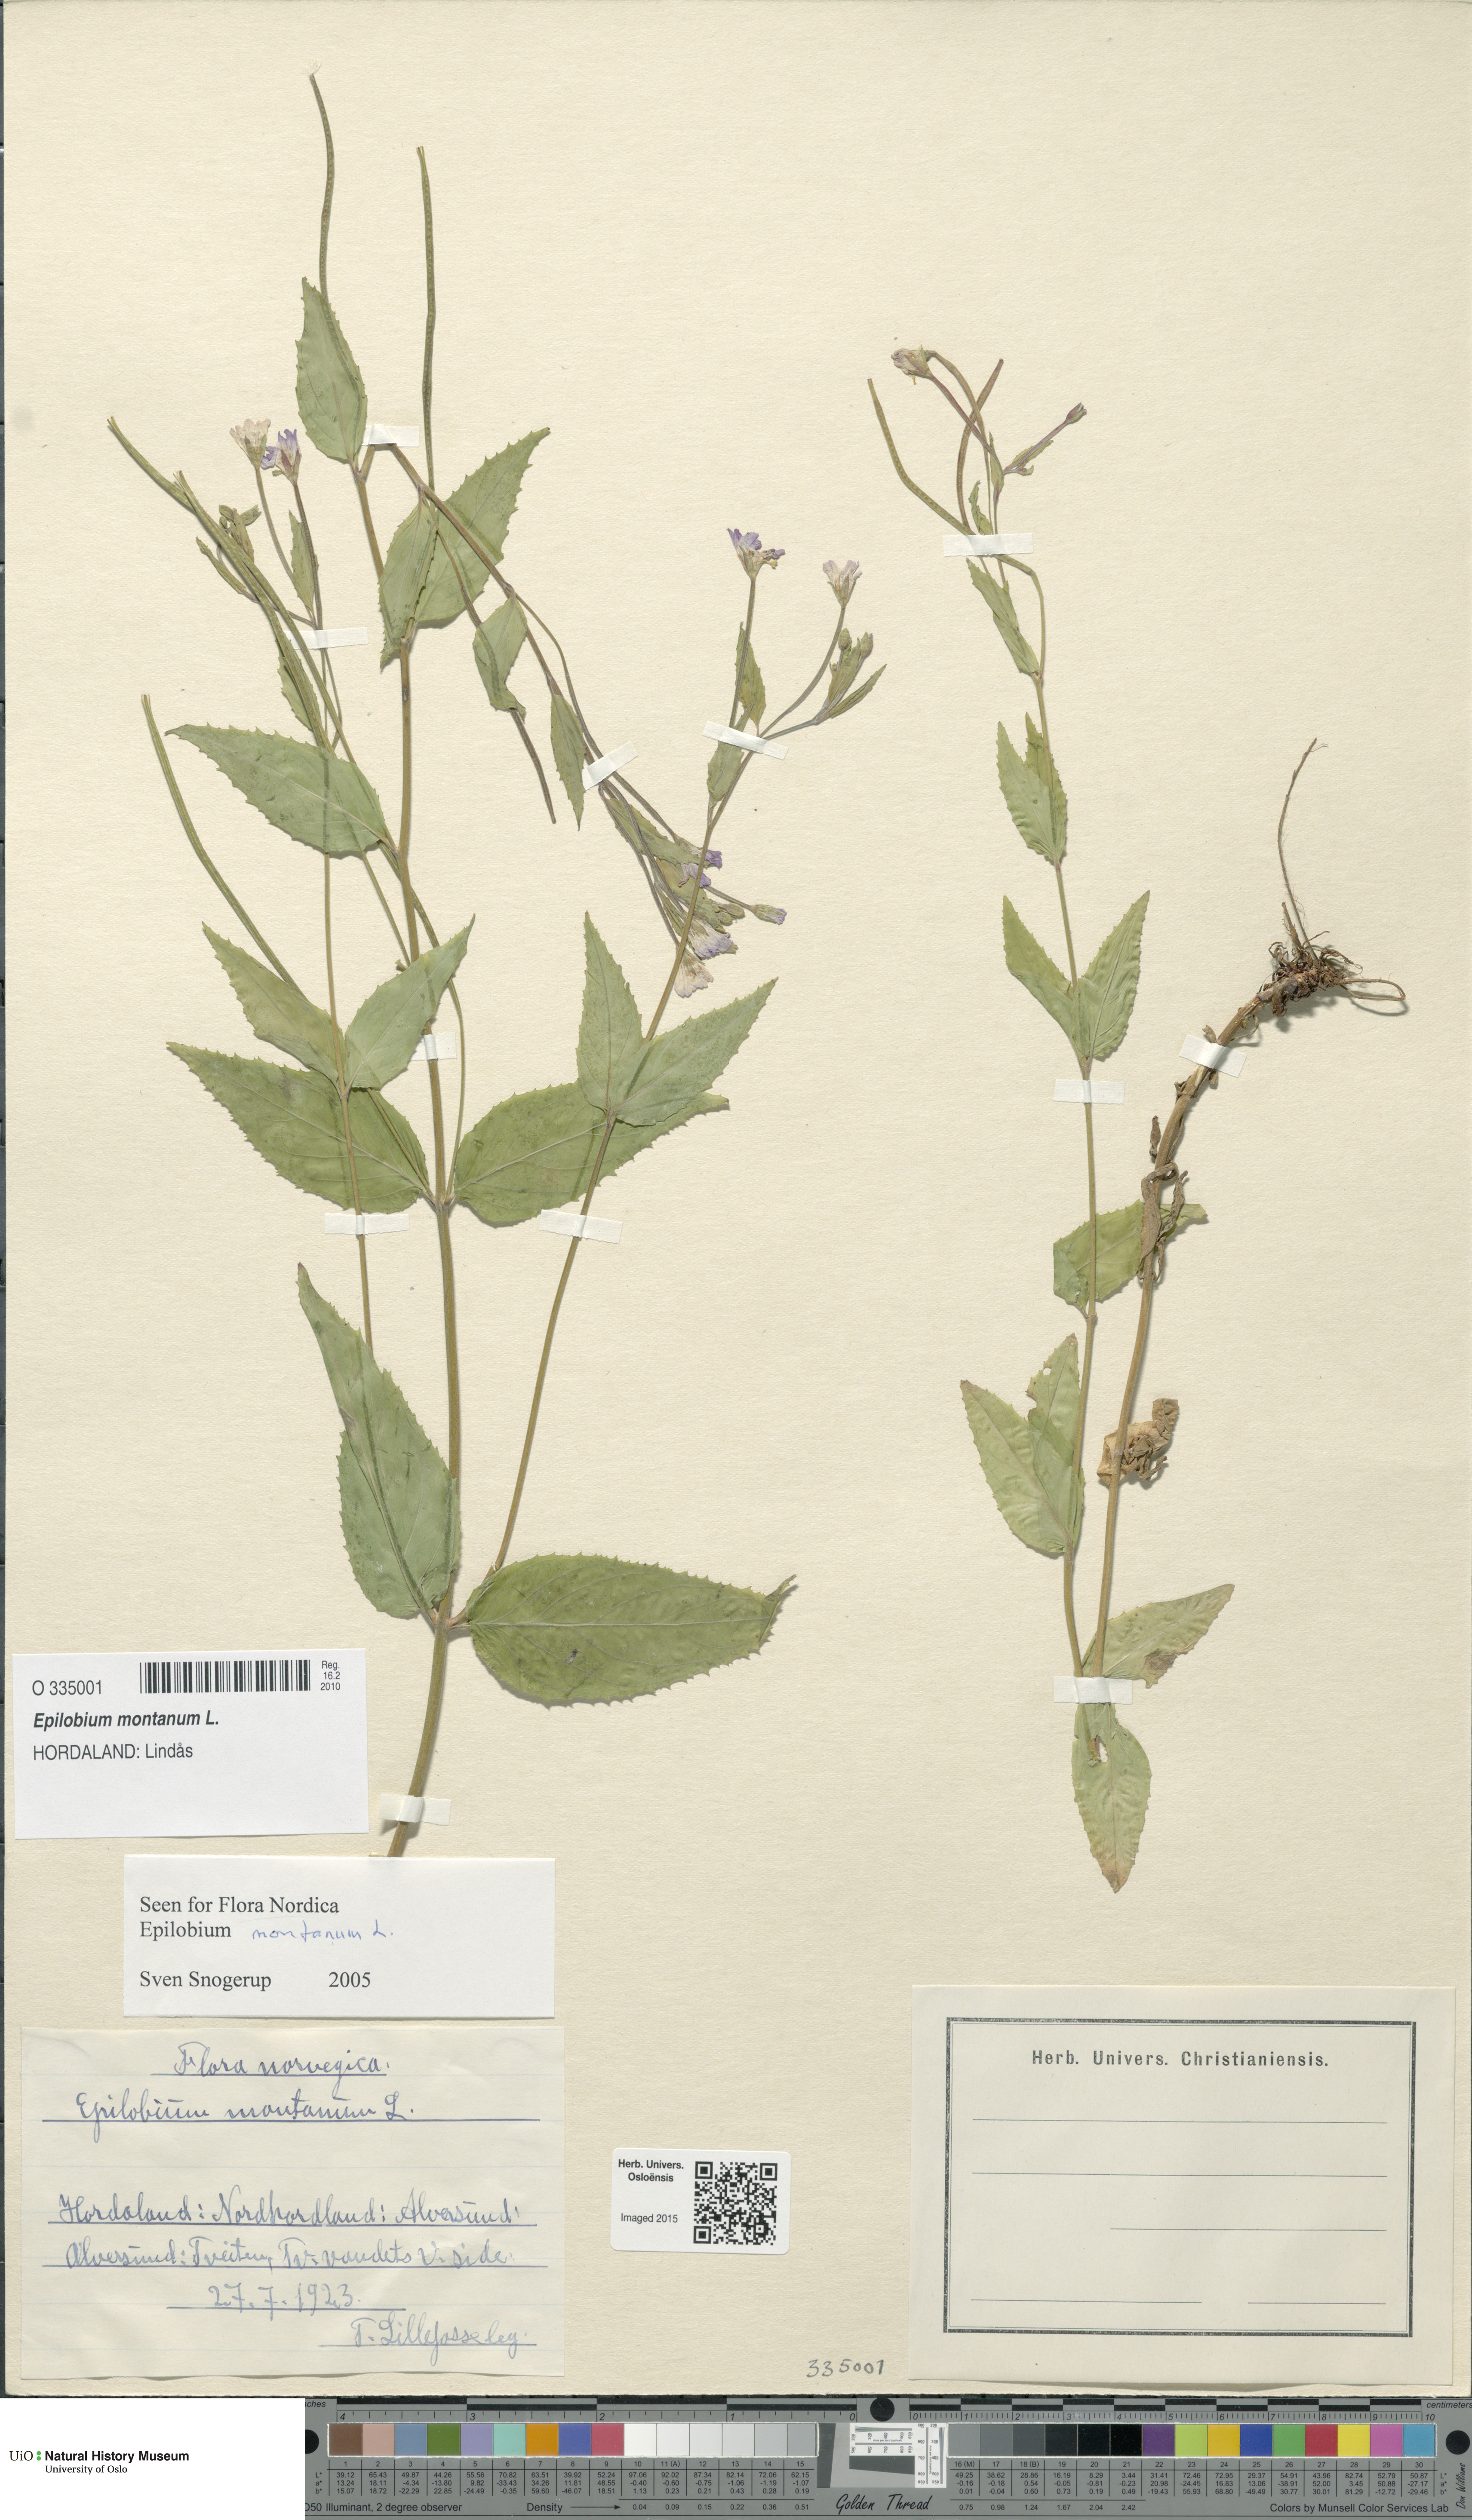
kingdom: Plantae
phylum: Tracheophyta
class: Magnoliopsida
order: Myrtales
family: Onagraceae
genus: Epilobium
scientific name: Epilobium montanum
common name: Broad-leaved willowherb
